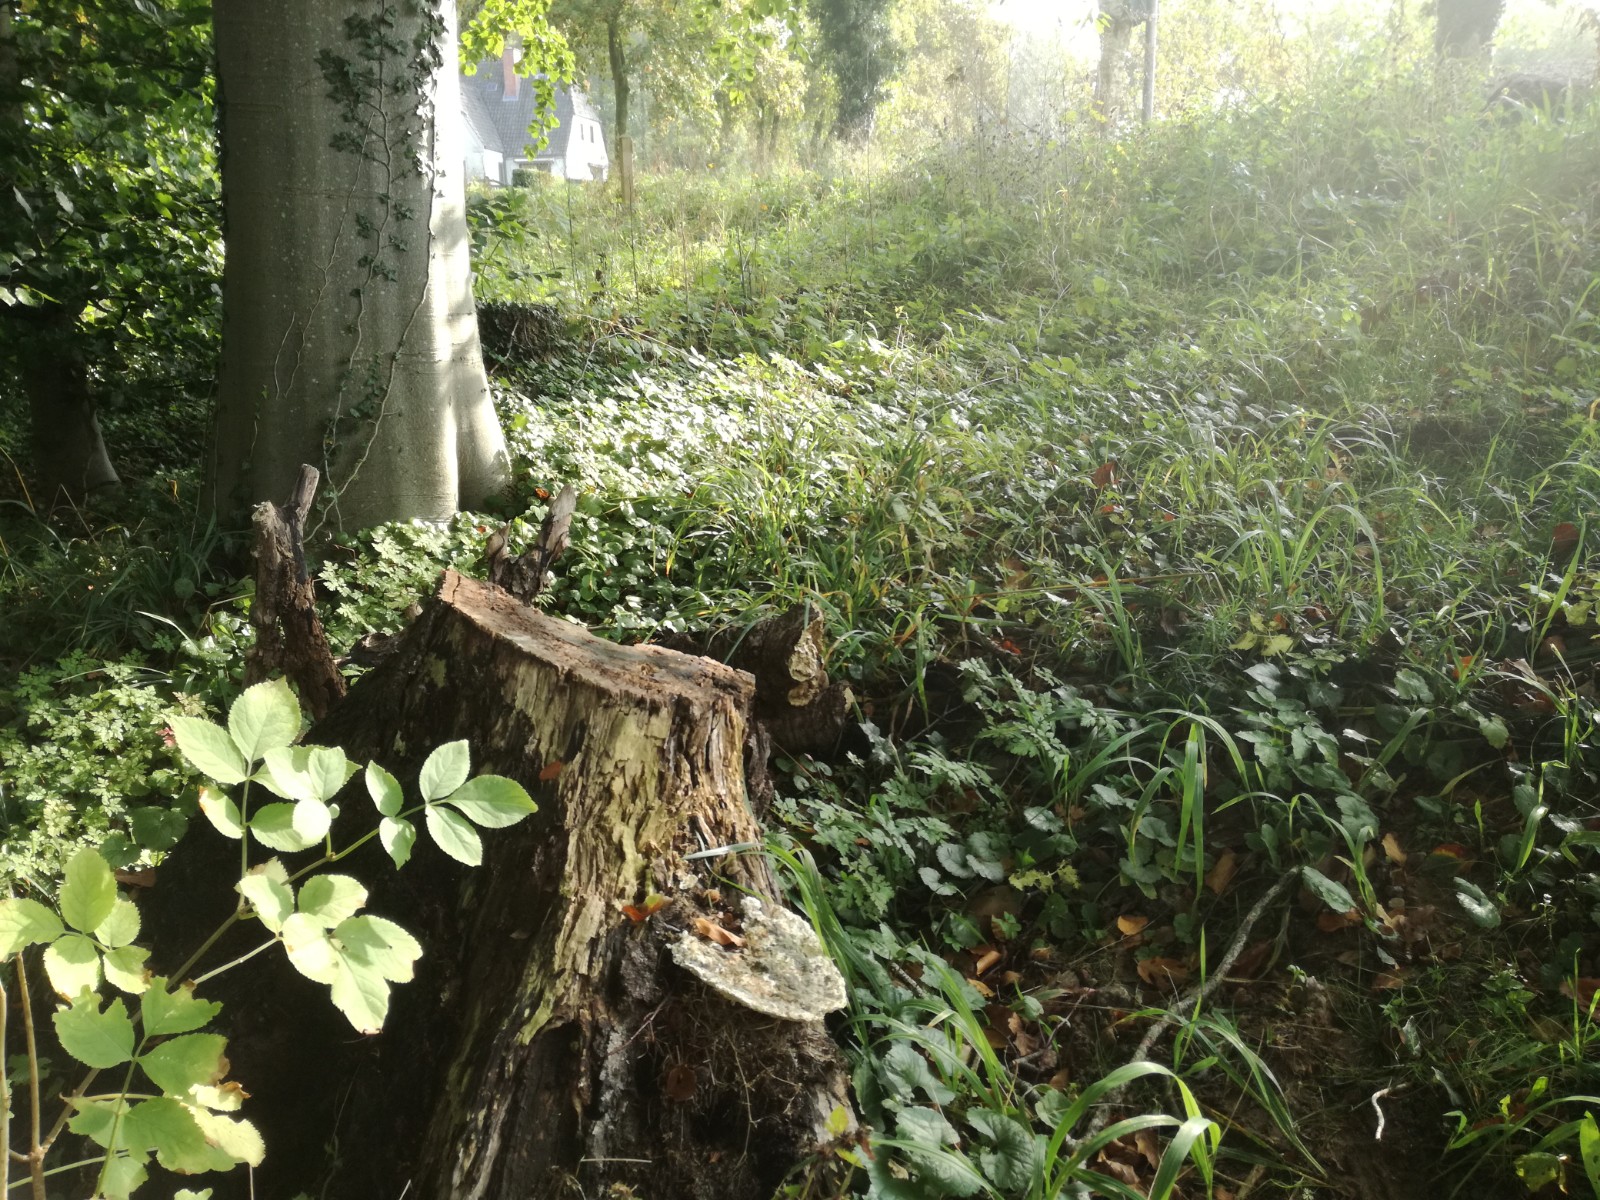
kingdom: Fungi
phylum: Basidiomycota
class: Agaricomycetes
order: Polyporales
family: Polyporaceae
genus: Trametes
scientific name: Trametes gibbosa
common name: puklet læderporesvamp
